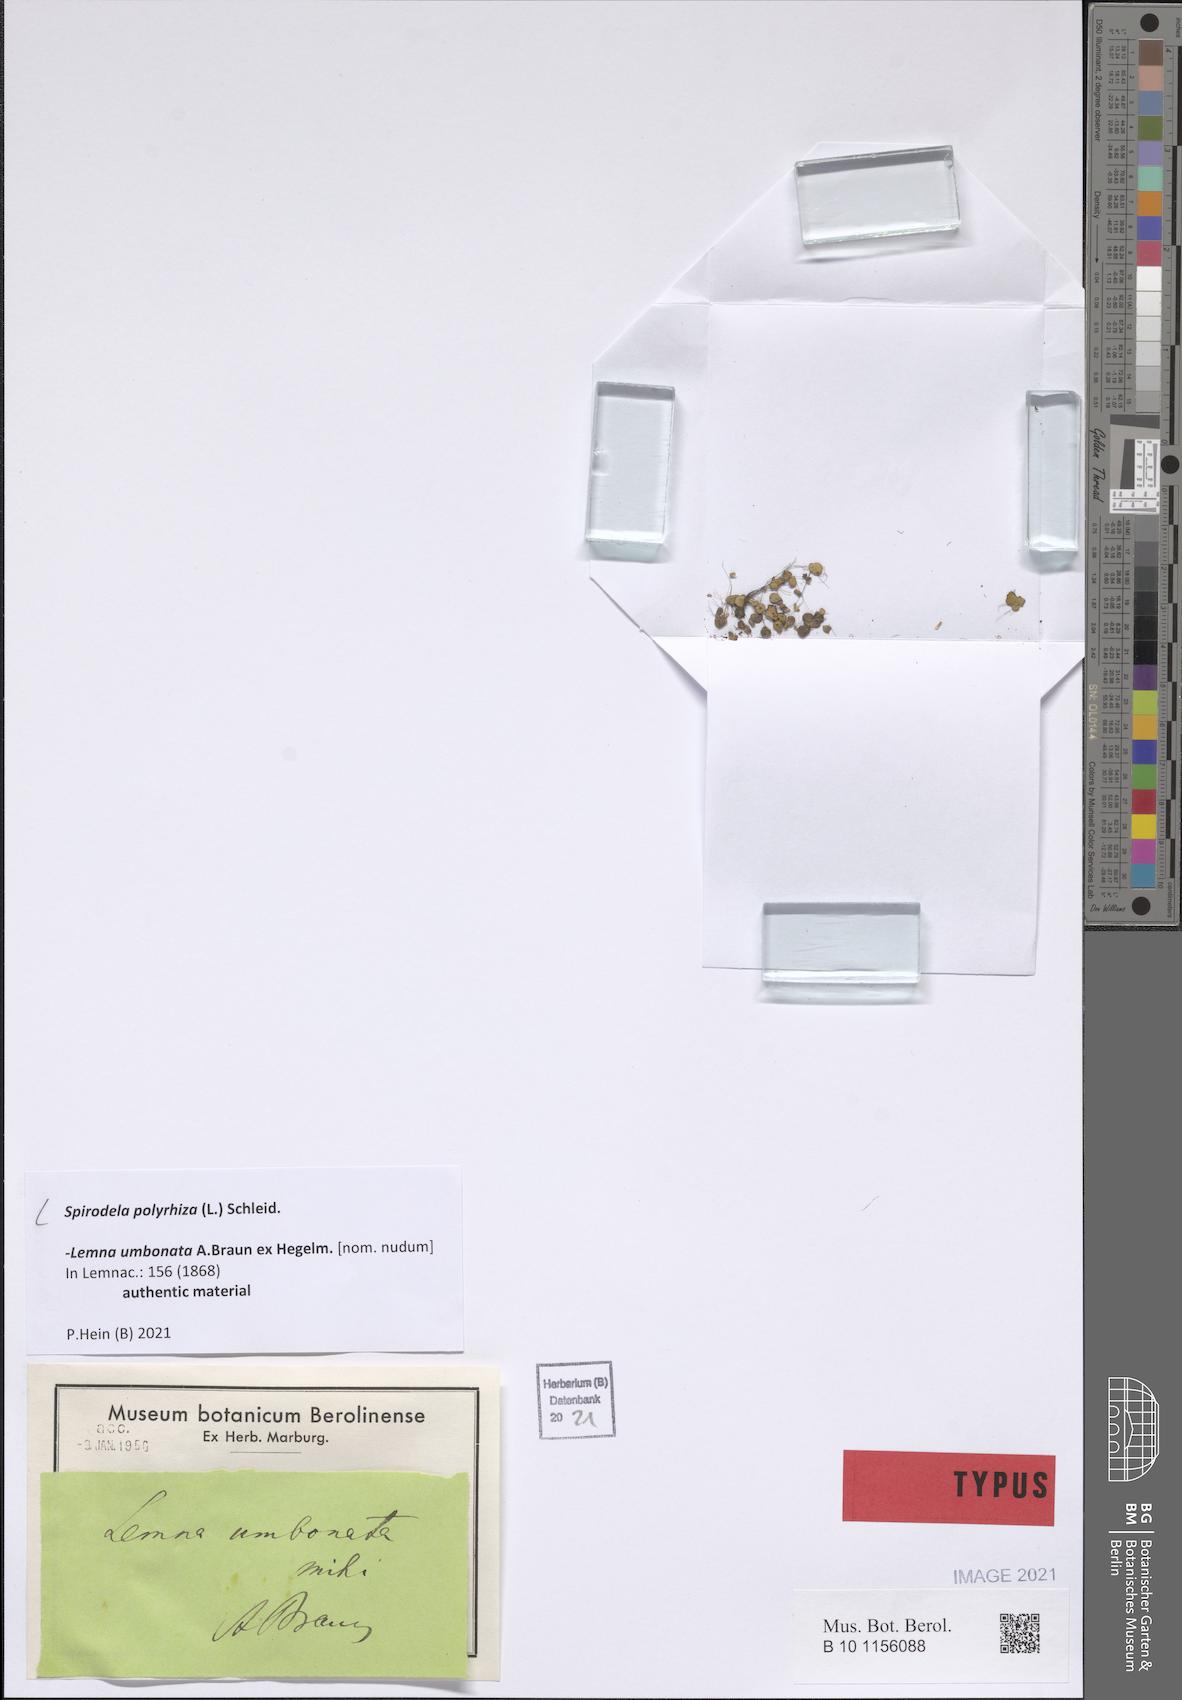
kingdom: Plantae
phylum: Tracheophyta
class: Liliopsida
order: Alismatales
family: Araceae
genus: Spirodela
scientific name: Spirodela polyrhiza
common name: Great duckweed
